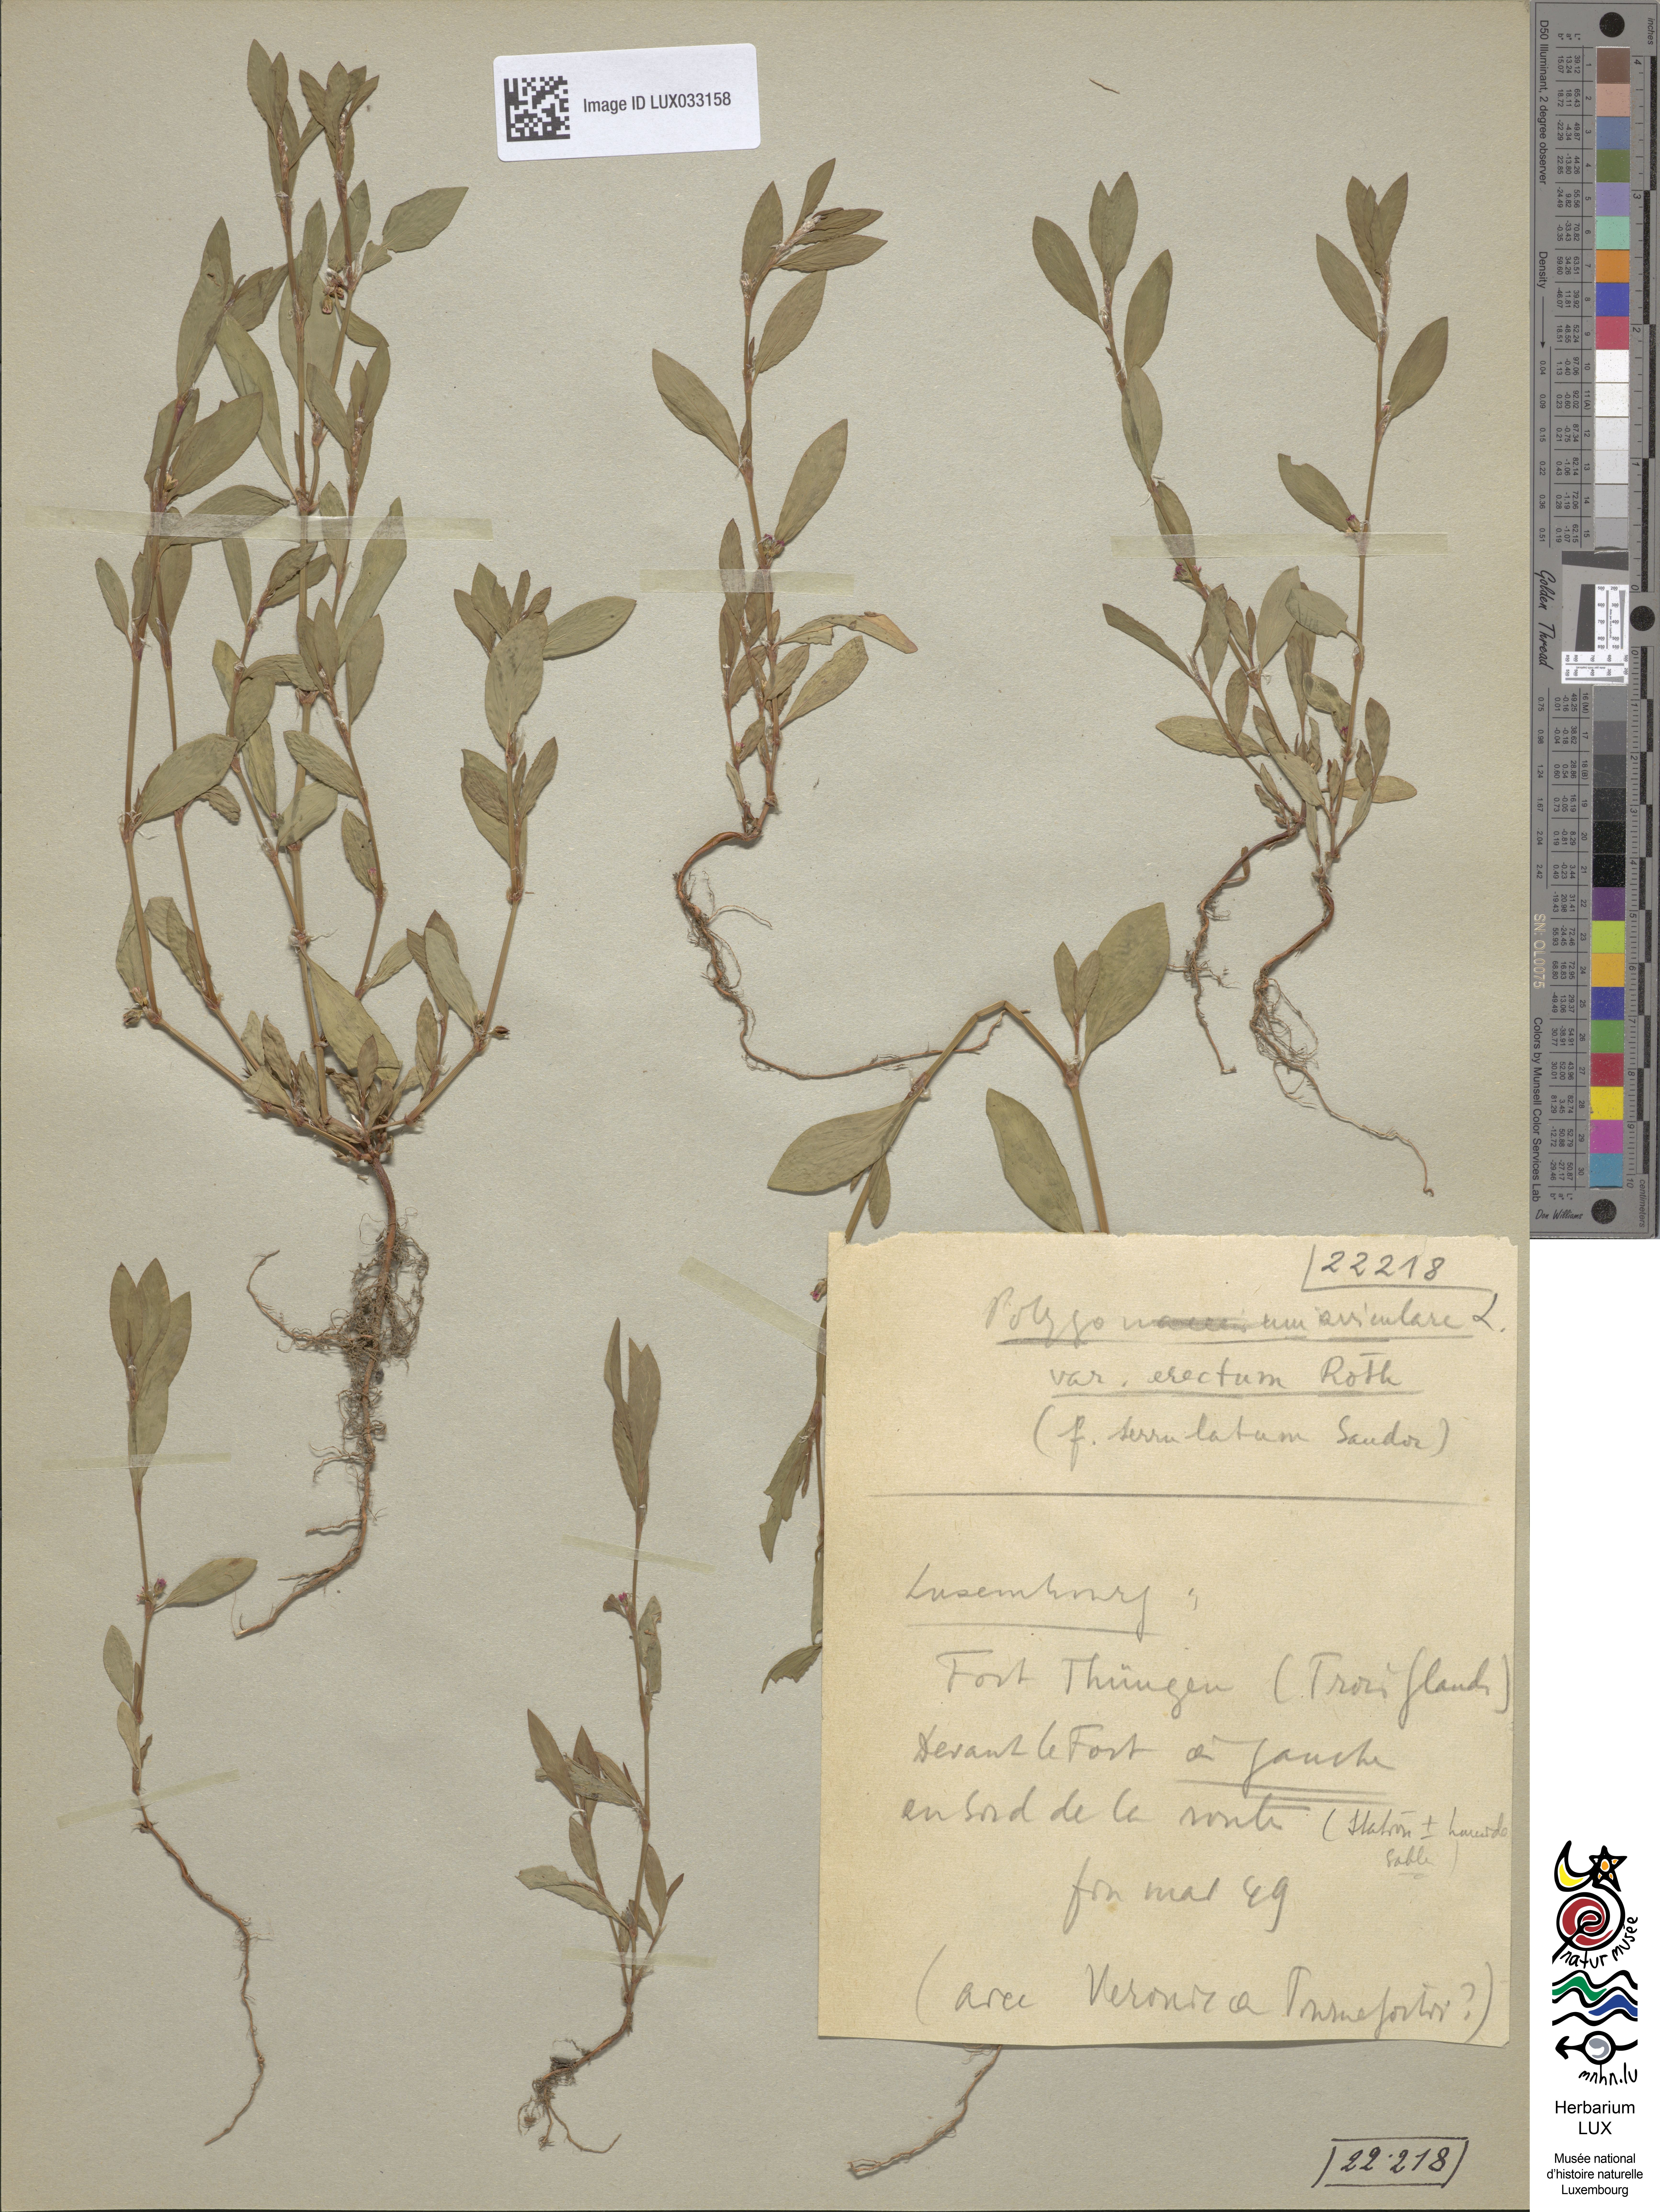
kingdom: Plantae
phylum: Tracheophyta
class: Magnoliopsida
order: Caryophyllales
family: Polygonaceae
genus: Polygonum
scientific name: Polygonum erectum
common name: Erect knotweed
